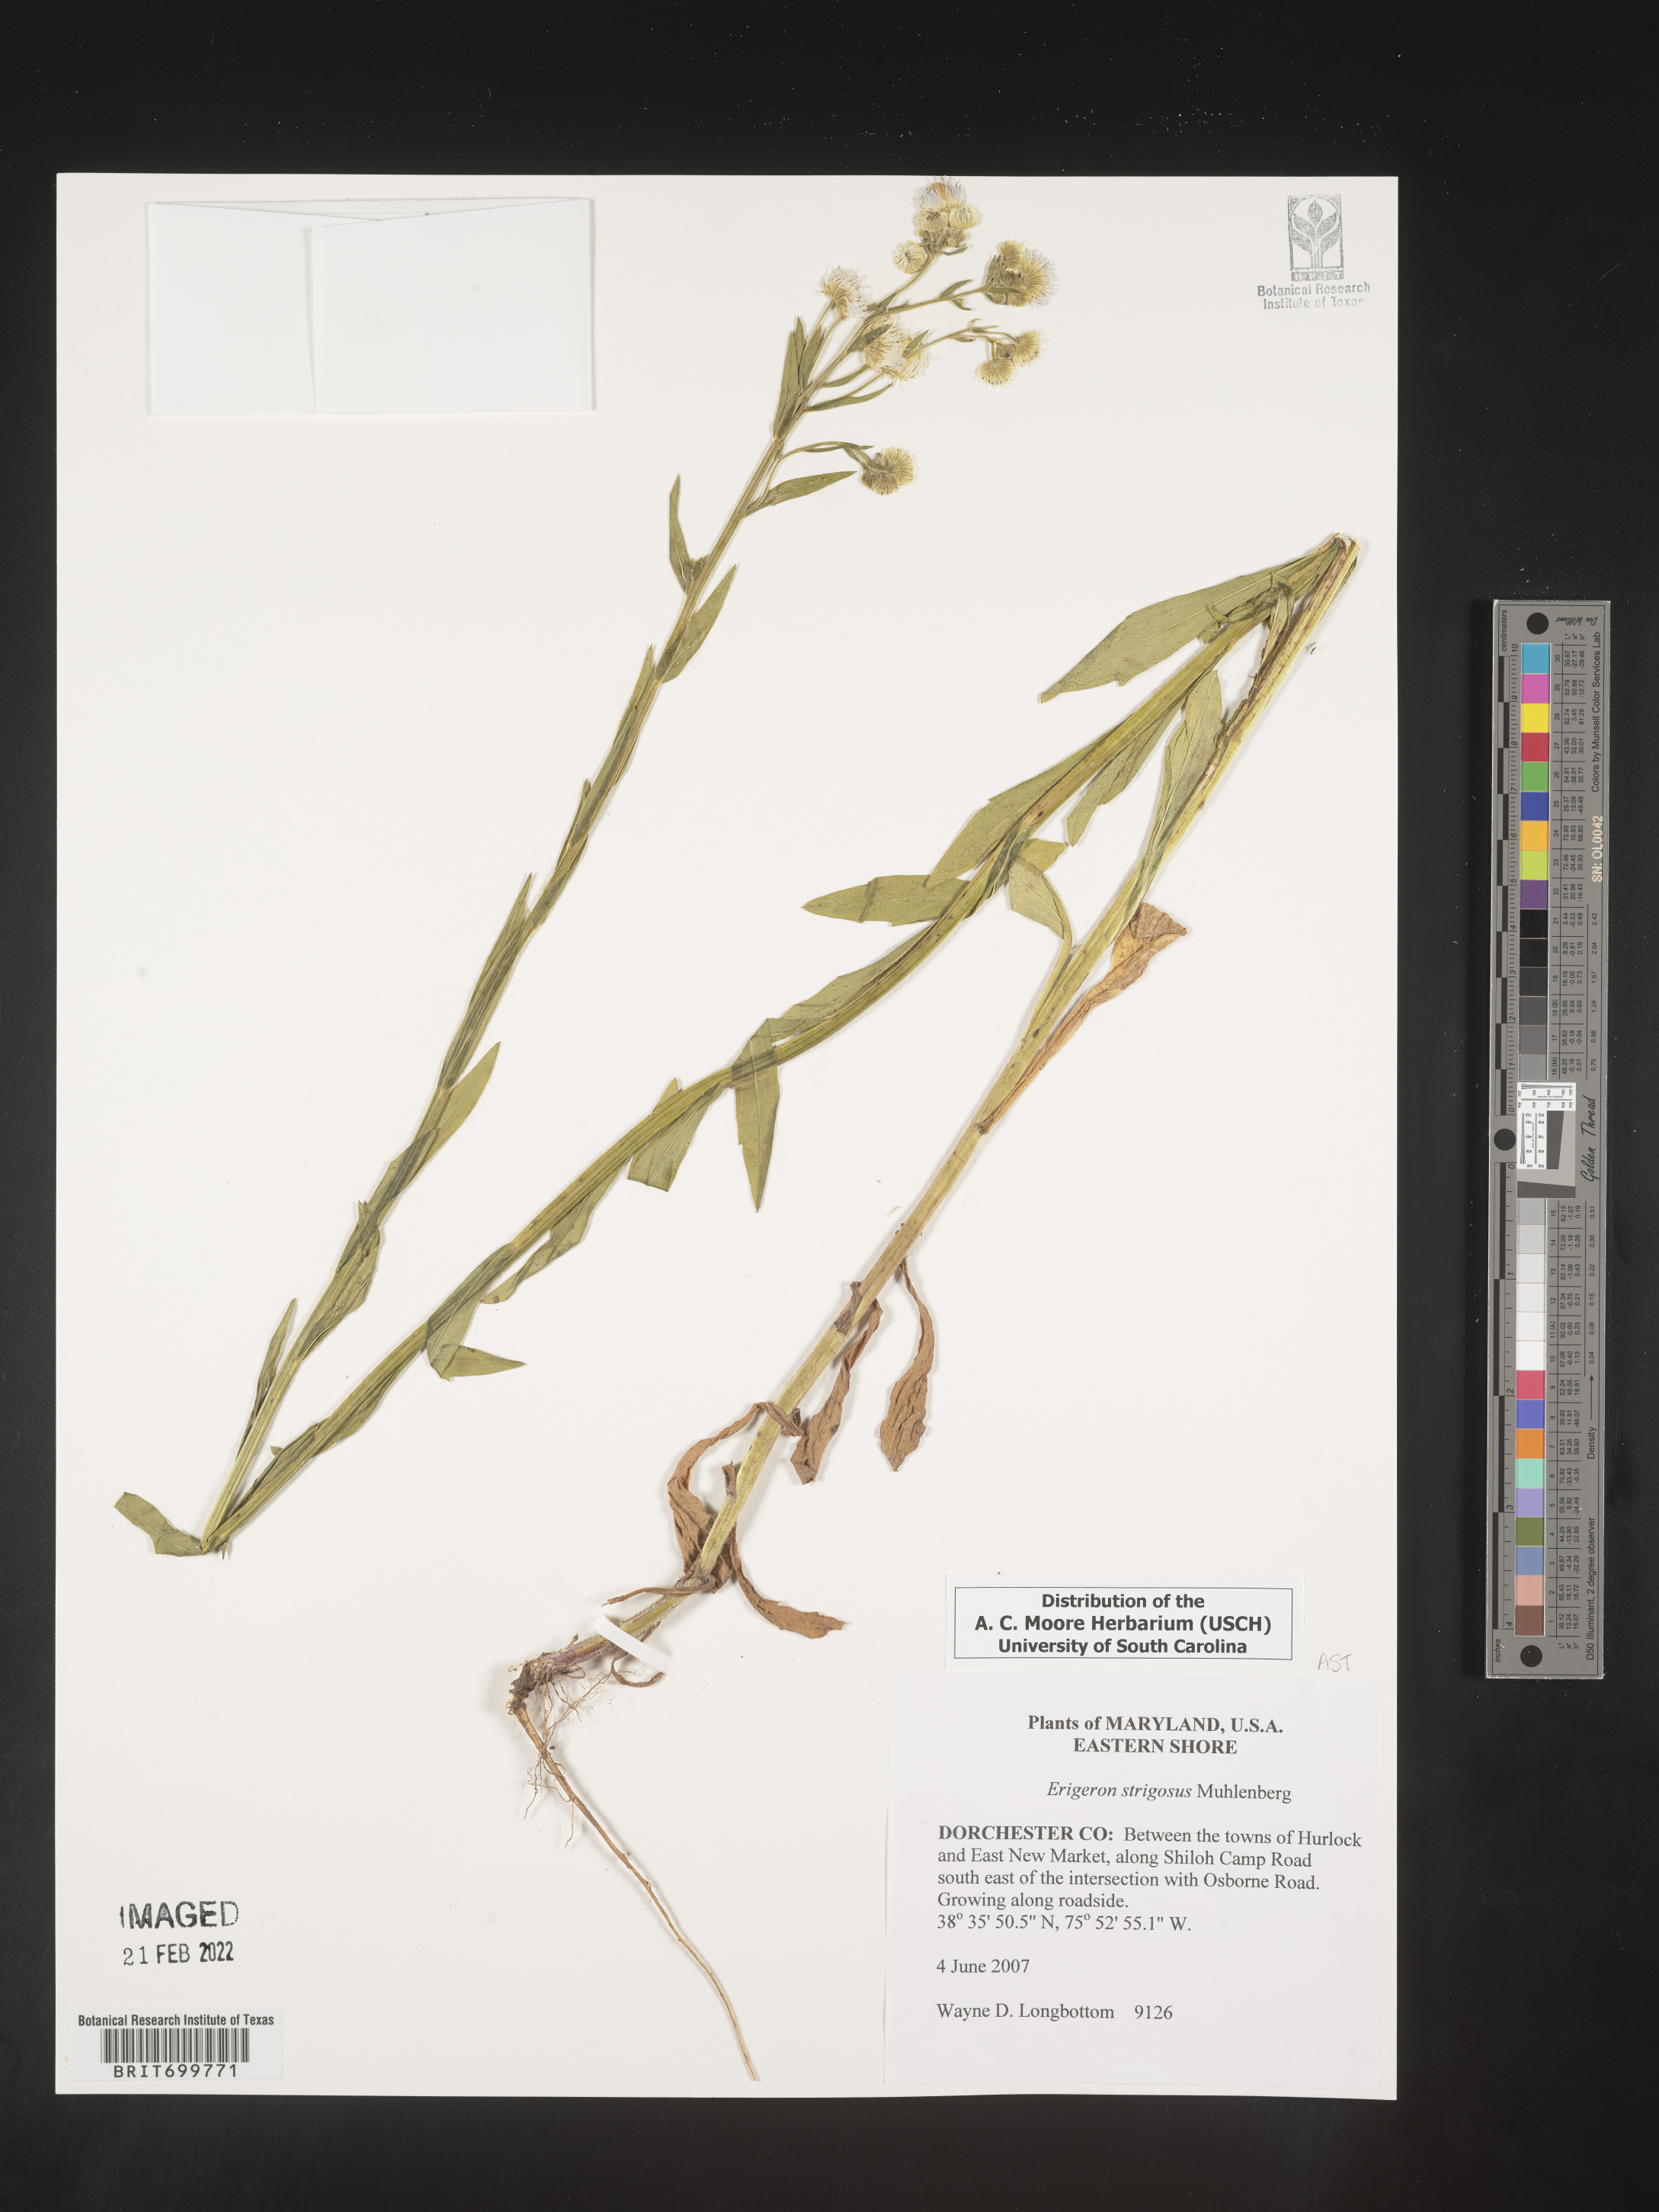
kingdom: Plantae
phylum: Tracheophyta
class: Magnoliopsida
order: Asterales
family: Asteraceae
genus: Erigeron
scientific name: Erigeron strigosus
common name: Common eastern fleabane
